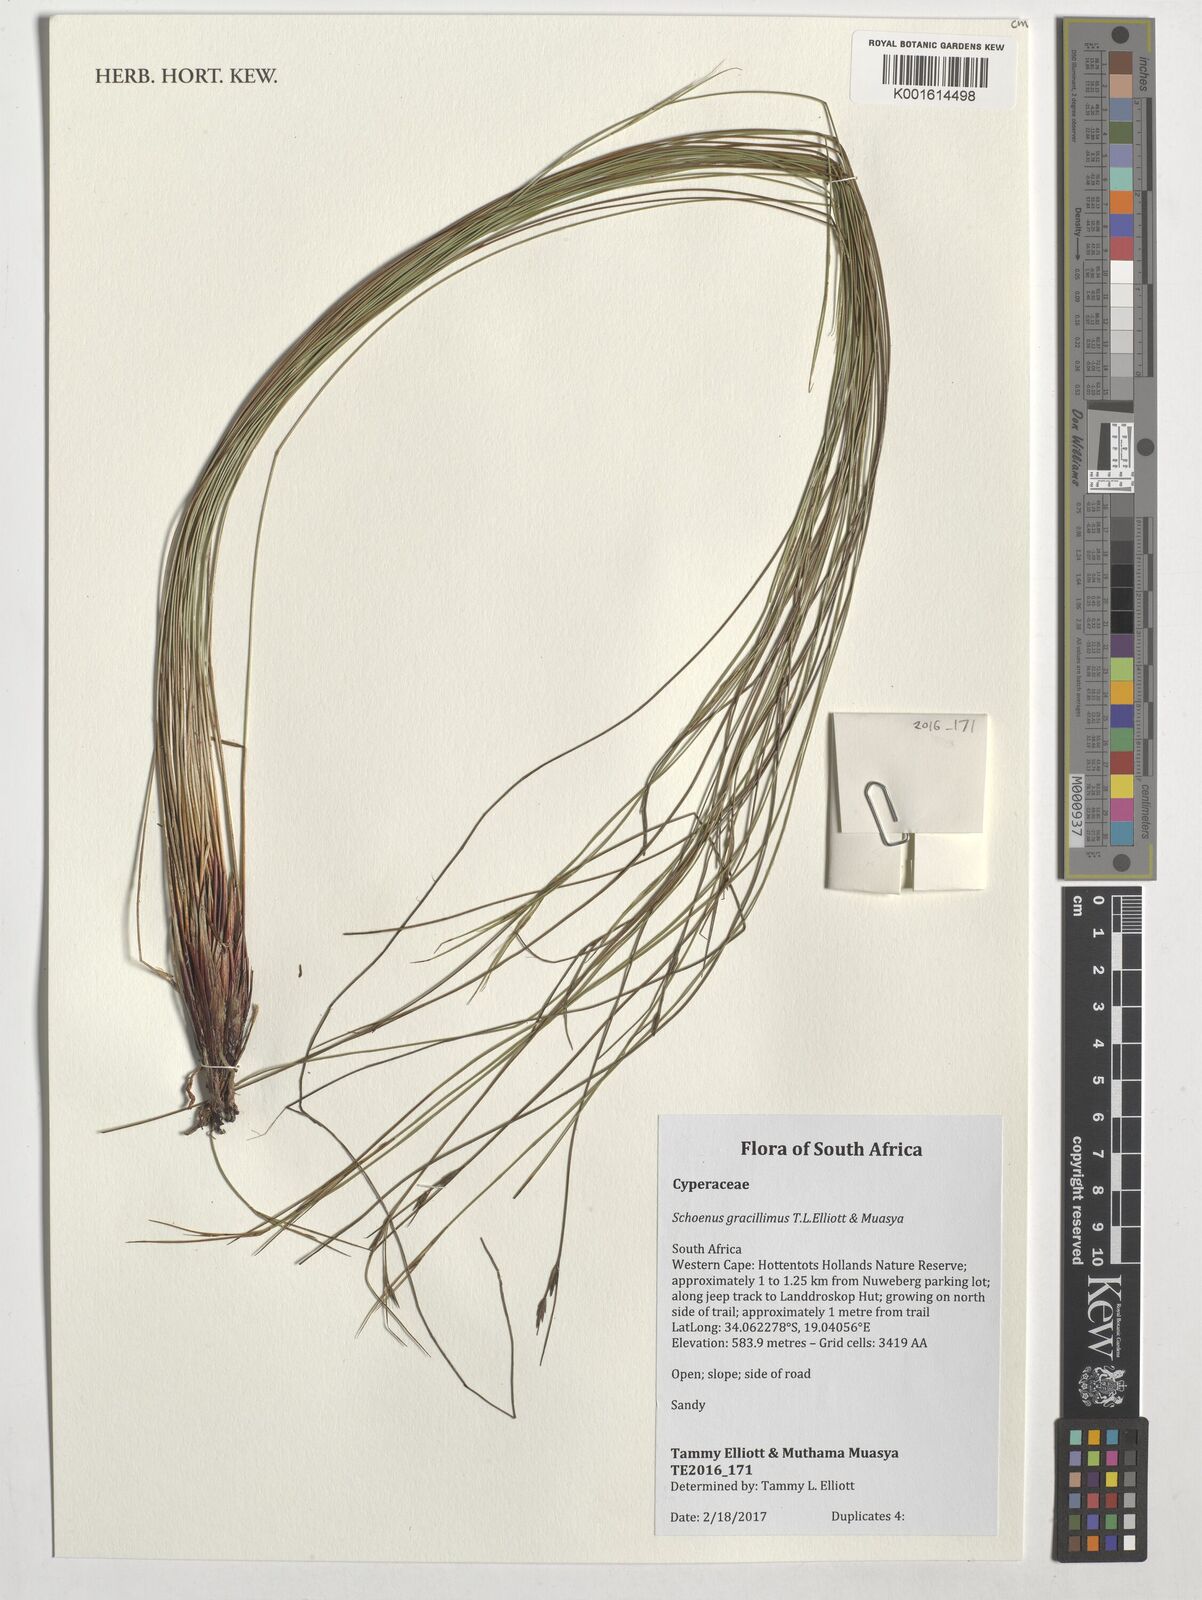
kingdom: Plantae
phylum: Tracheophyta
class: Liliopsida
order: Poales
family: Cyperaceae
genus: Schoenus
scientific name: Schoenus gracillimus
